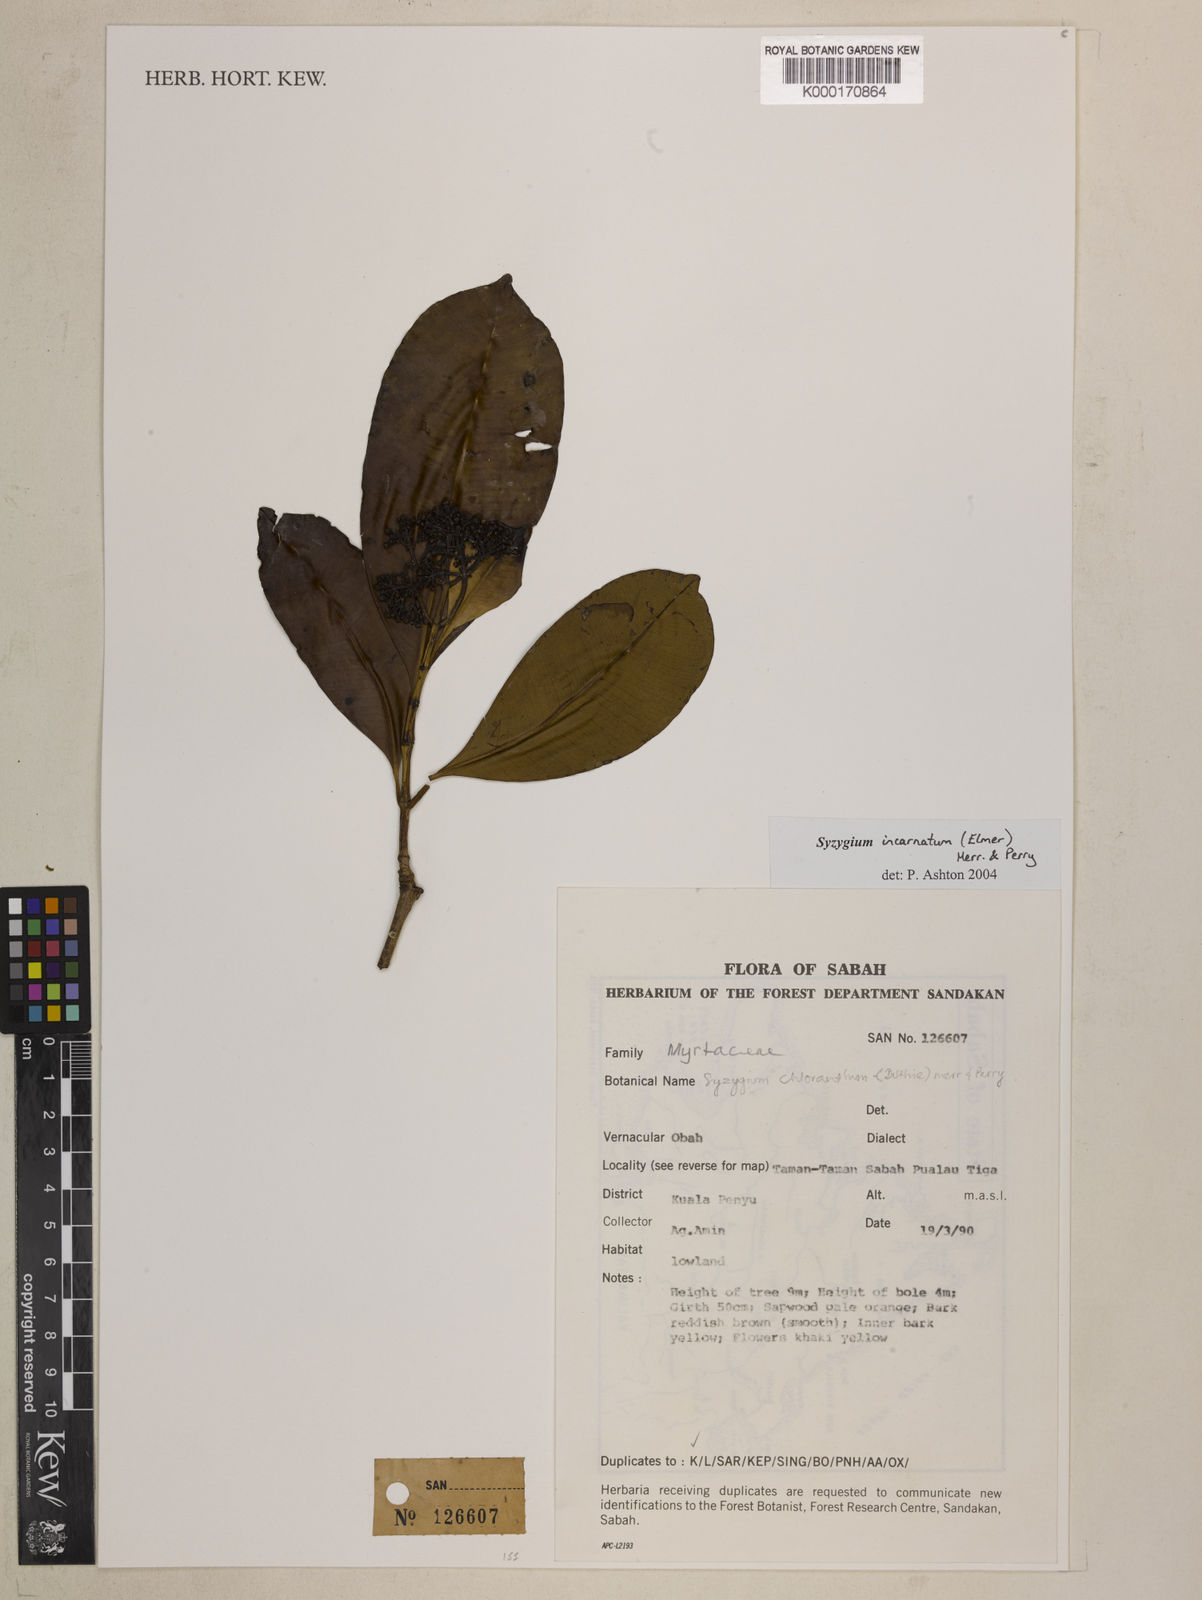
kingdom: Plantae
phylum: Tracheophyta
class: Magnoliopsida
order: Myrtales
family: Myrtaceae
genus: Syzygium
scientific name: Syzygium incarnatum
